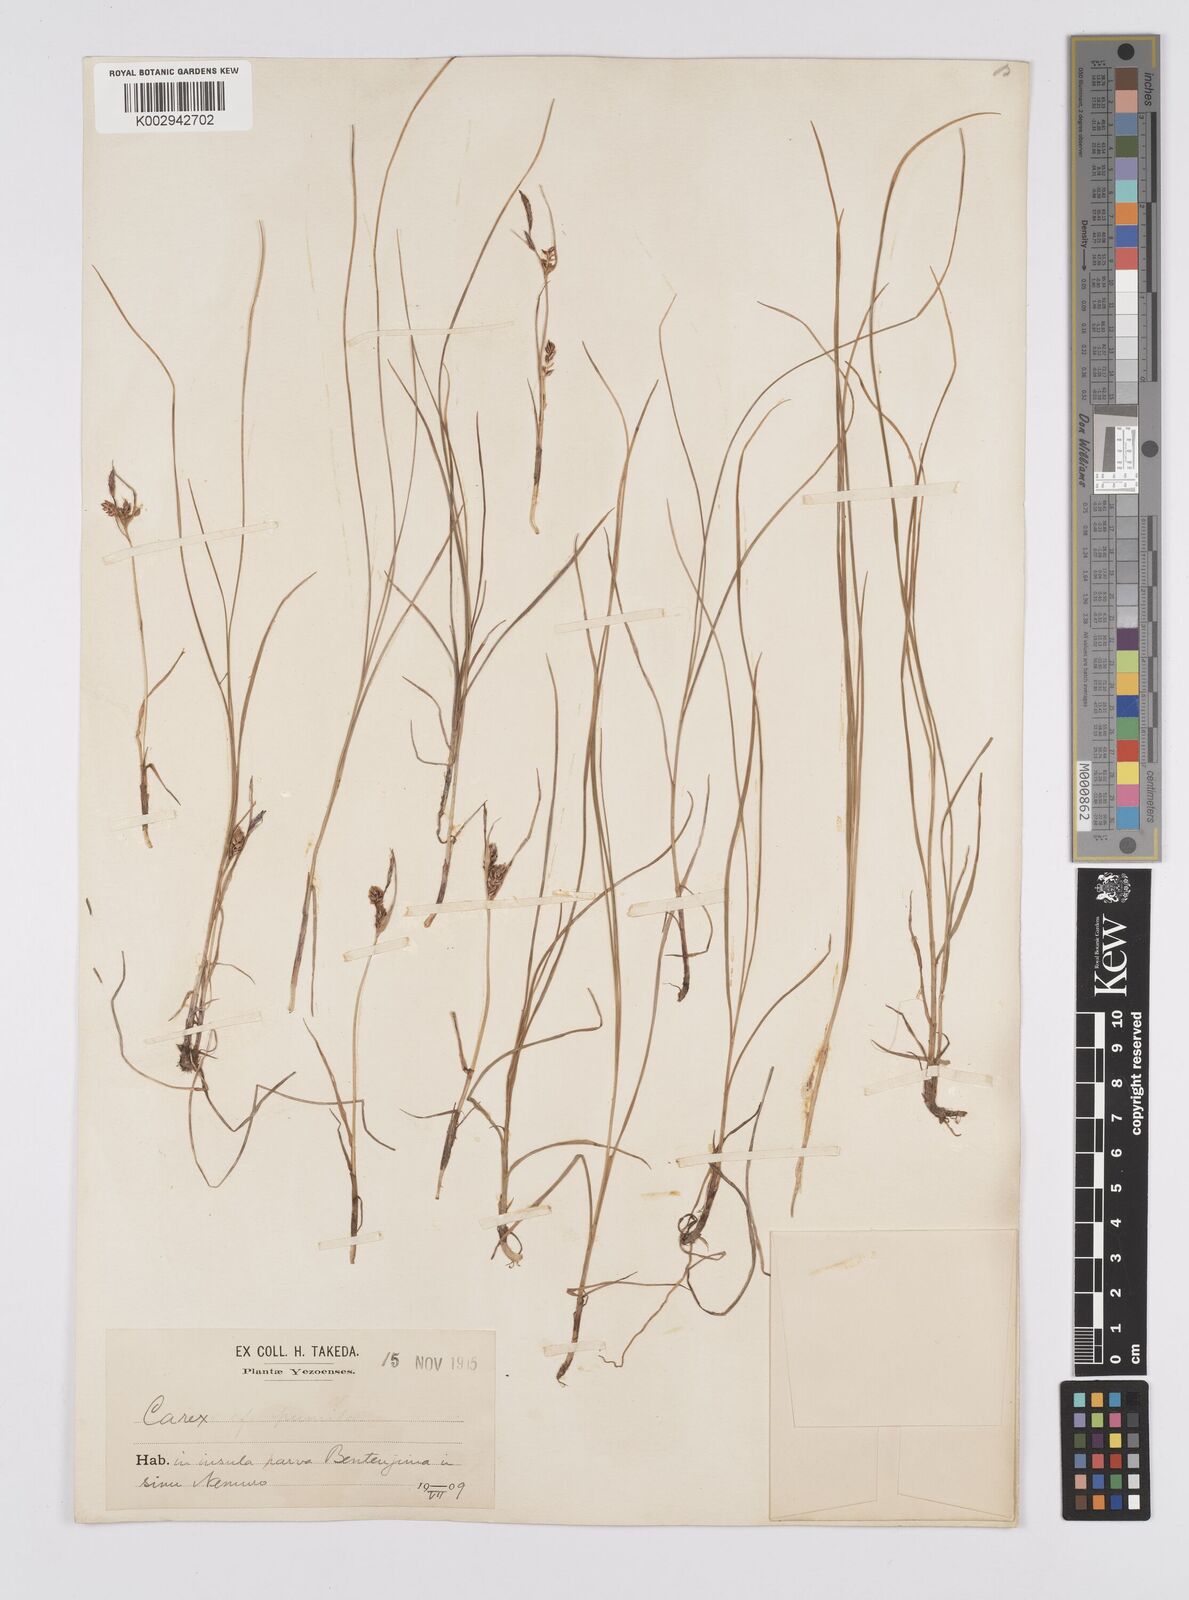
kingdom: Plantae
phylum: Tracheophyta
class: Liliopsida
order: Poales
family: Cyperaceae
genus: Carex
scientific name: Carex heterostachya
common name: Different-spike sedge
